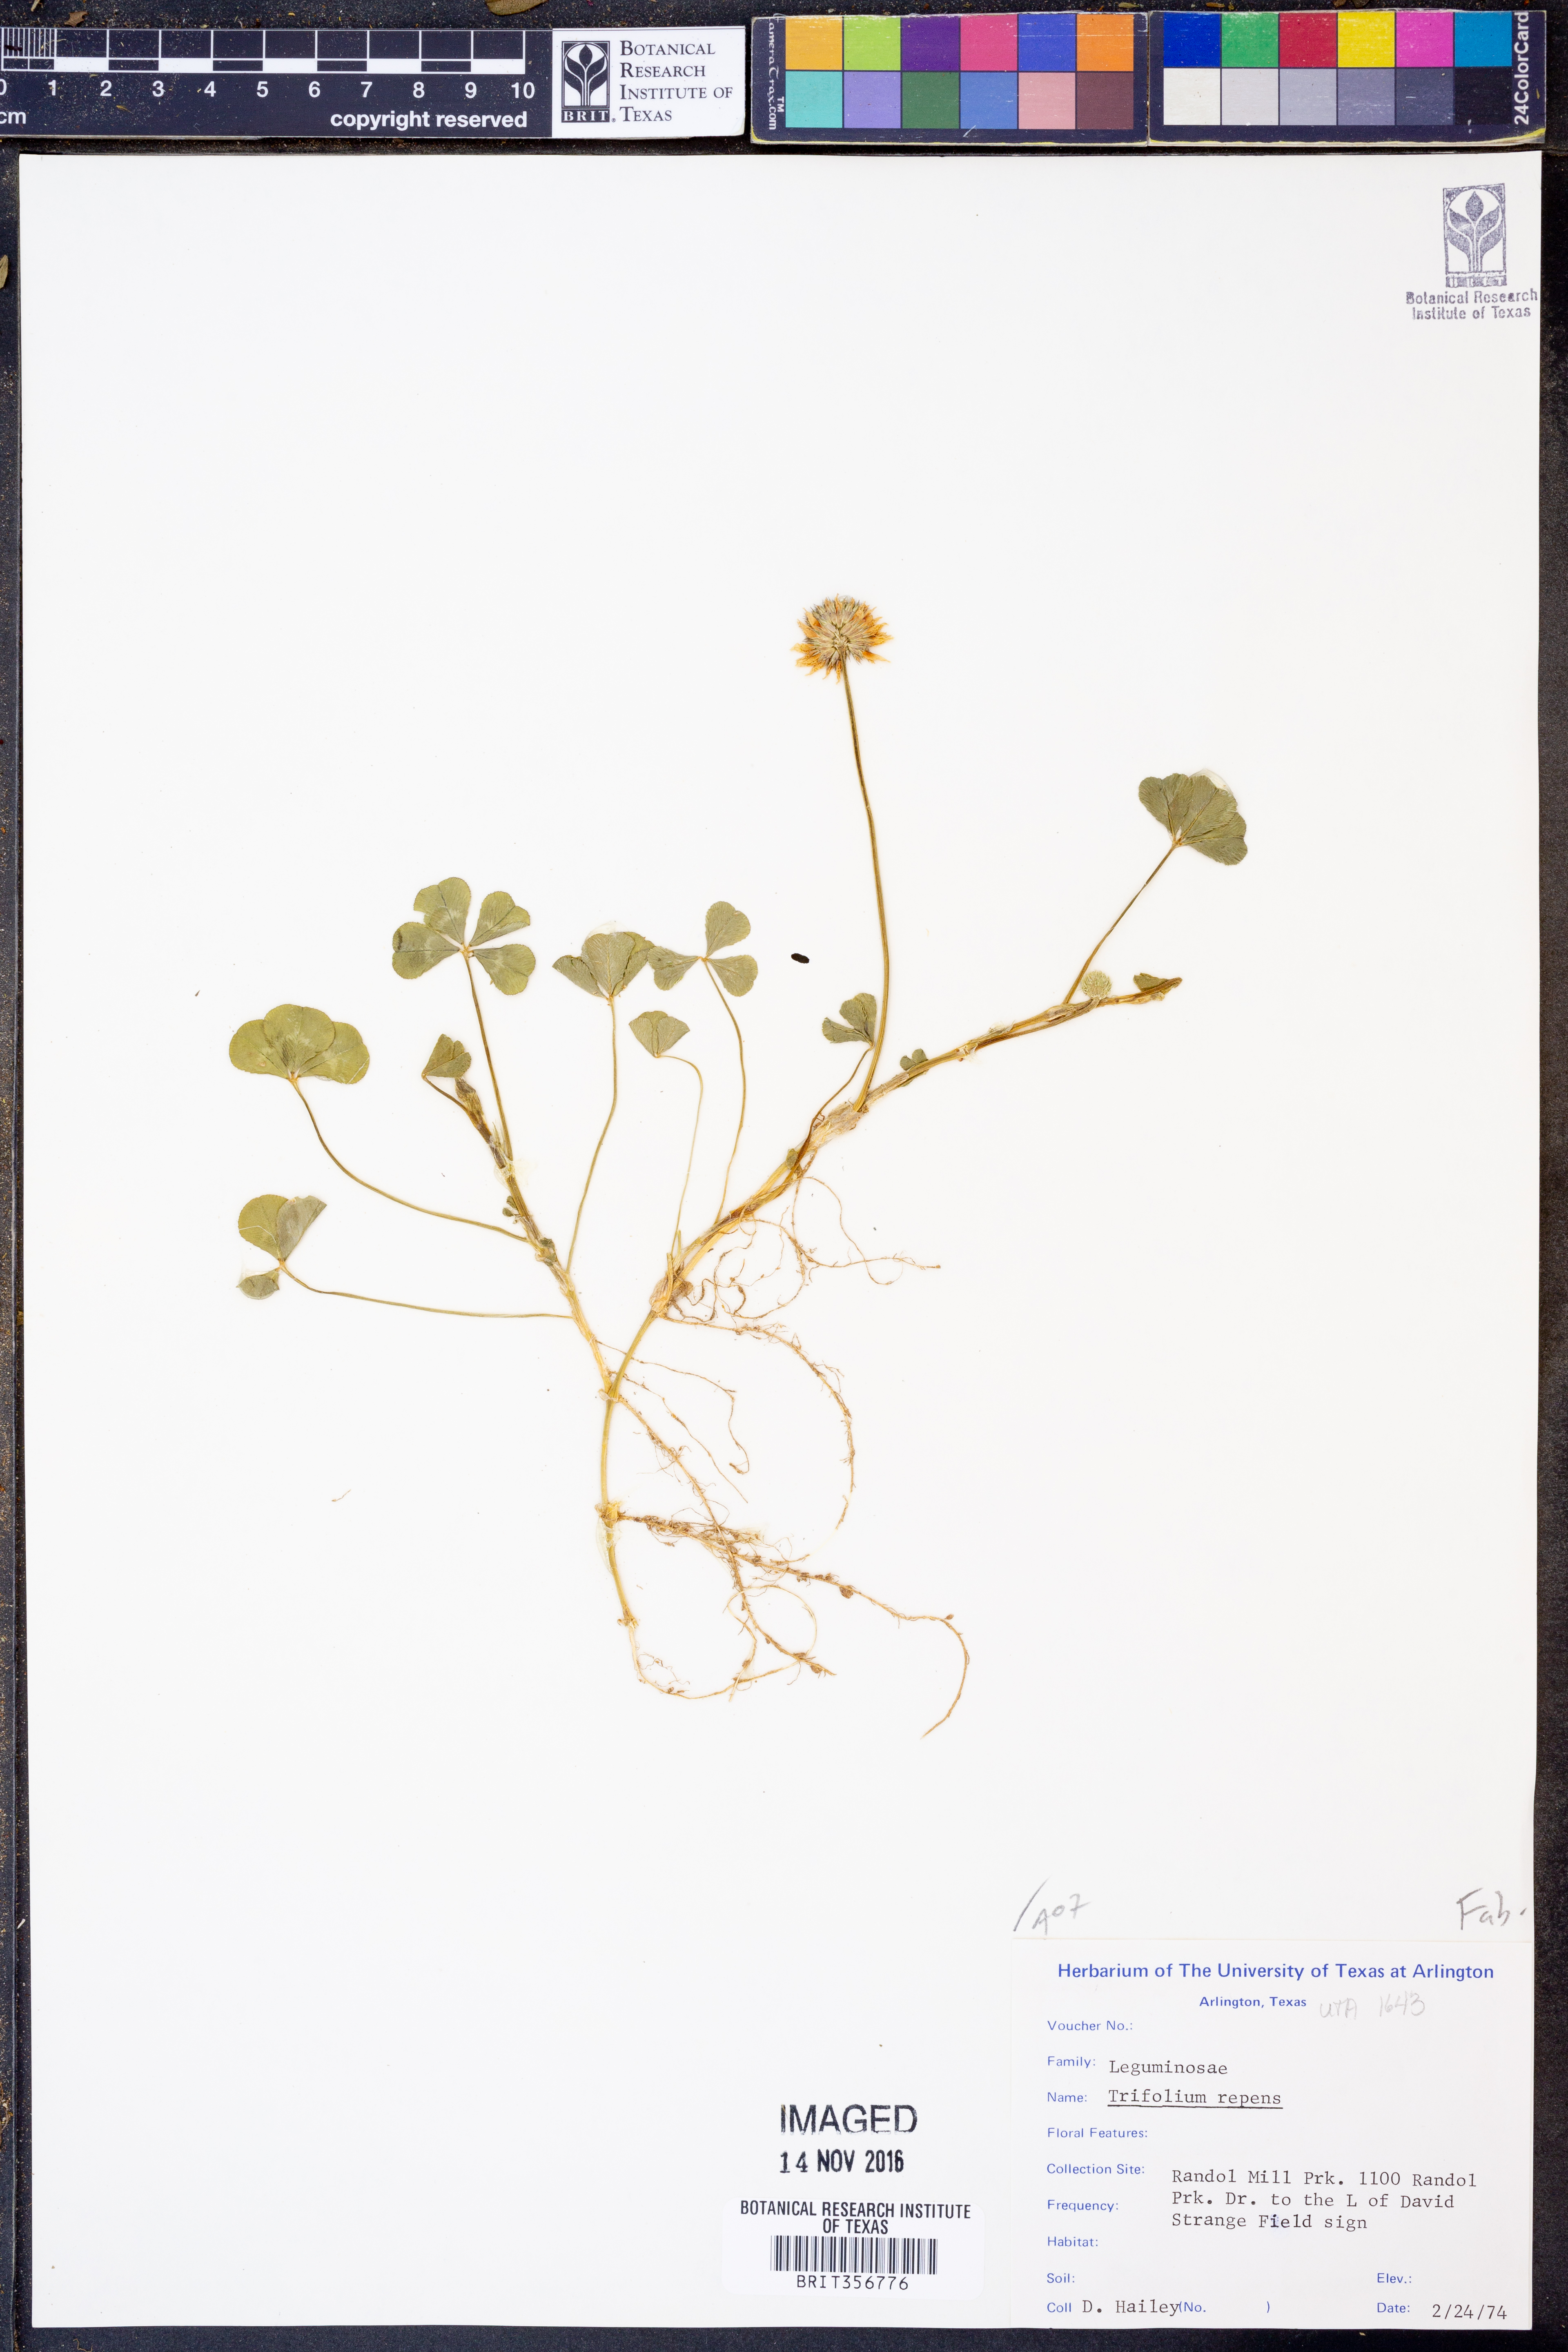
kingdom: Plantae
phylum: Tracheophyta
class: Magnoliopsida
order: Fabales
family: Fabaceae
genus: Trifolium
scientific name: Trifolium repens
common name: White clover
